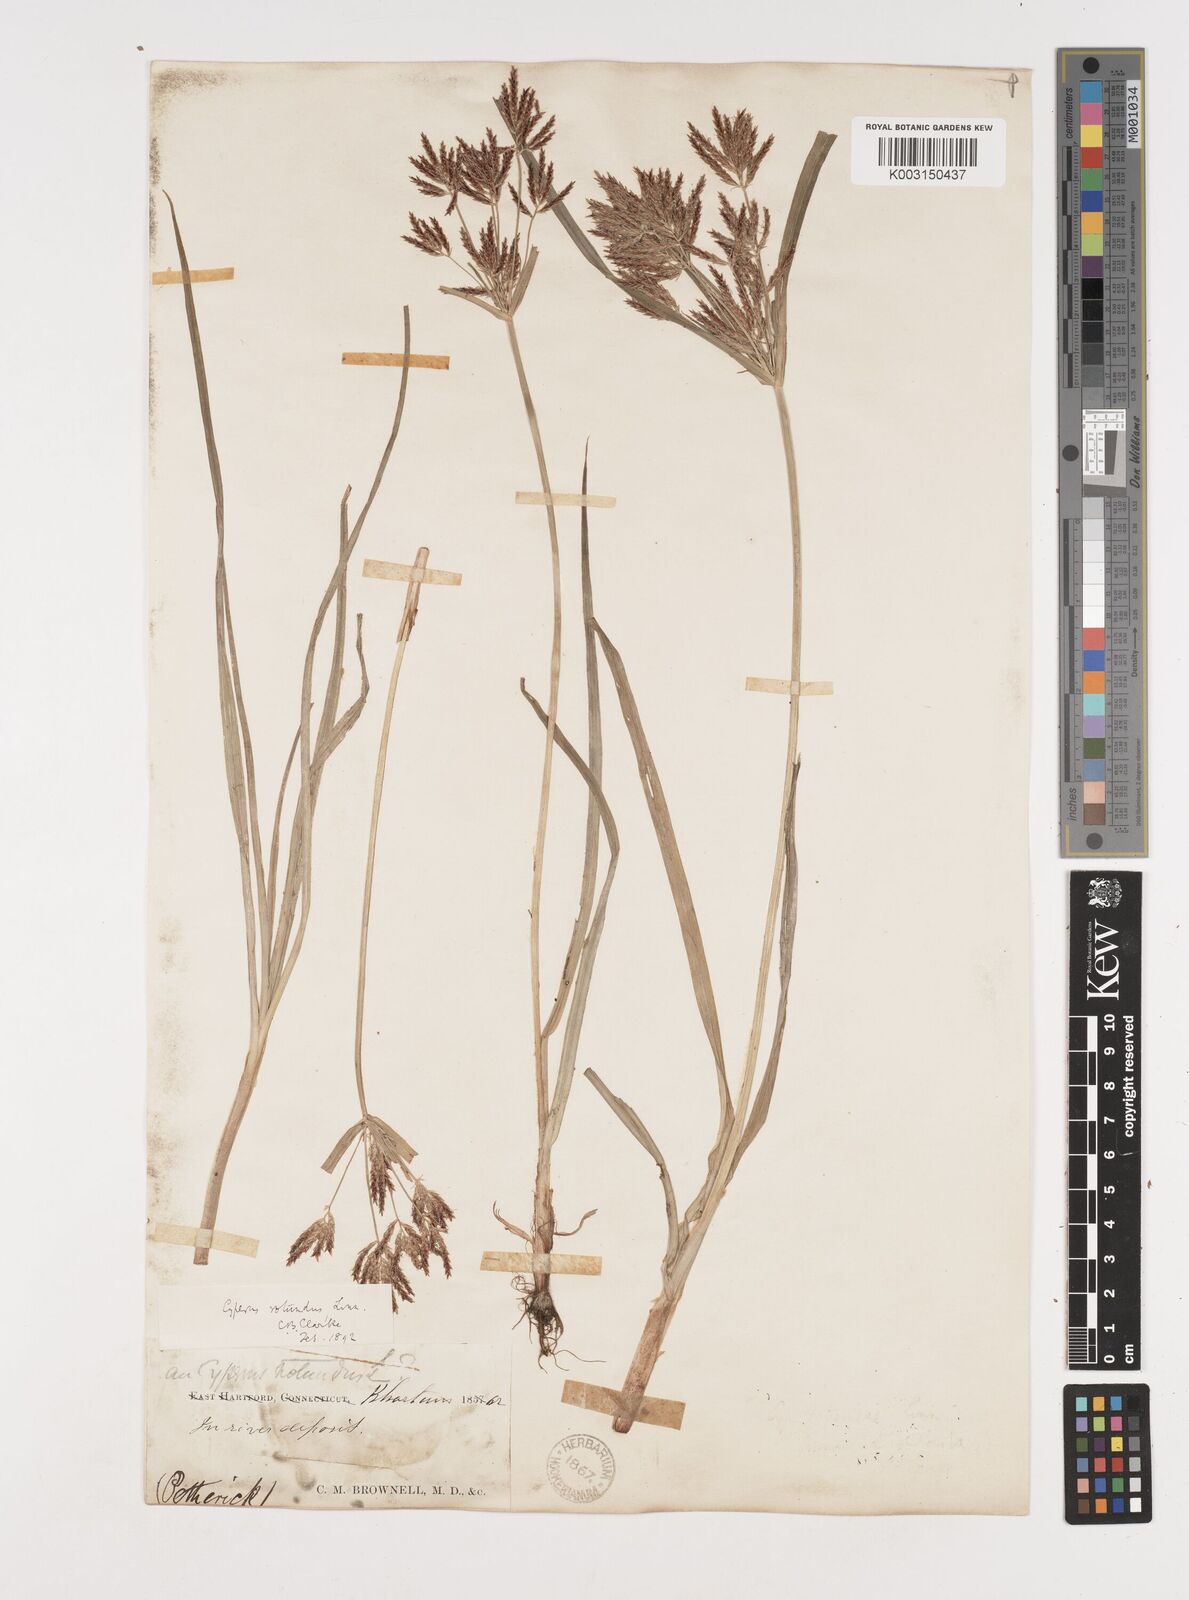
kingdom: Plantae
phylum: Tracheophyta
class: Liliopsida
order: Poales
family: Cyperaceae
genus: Cyperus
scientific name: Cyperus rotundus
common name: Nutgrass
